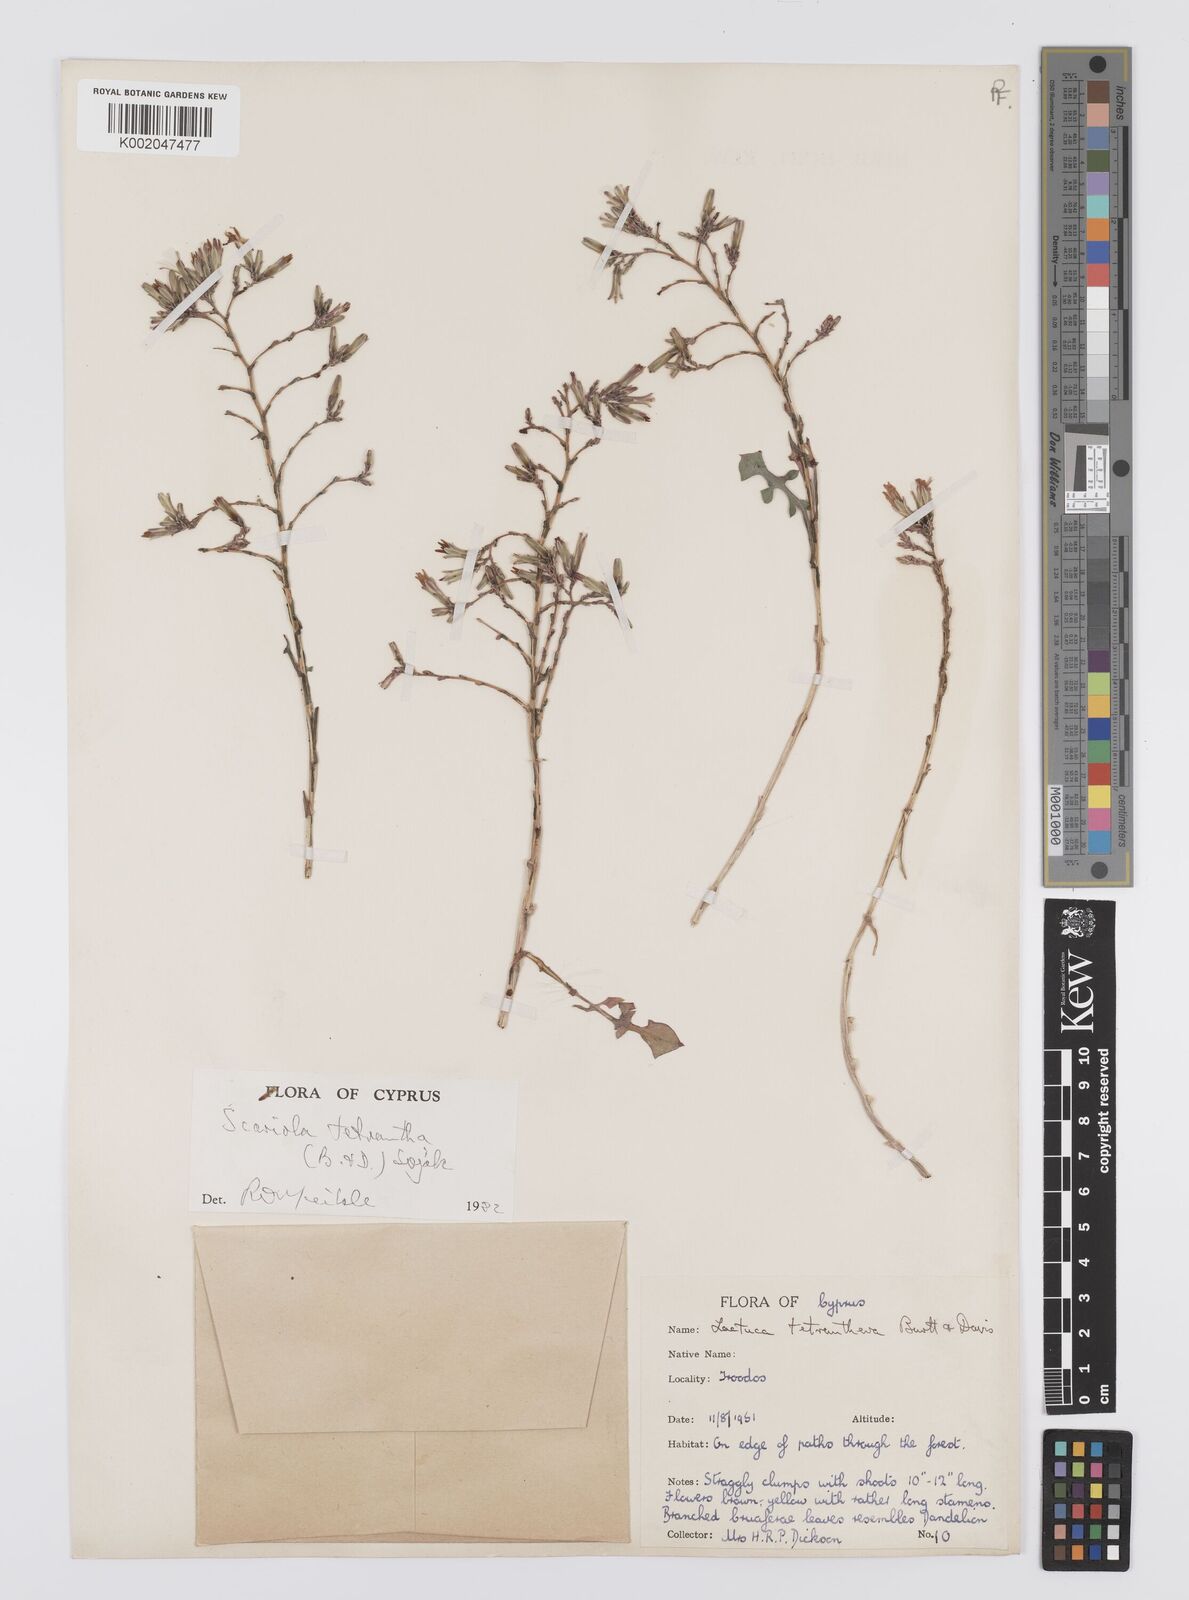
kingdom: Plantae
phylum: Tracheophyta
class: Magnoliopsida
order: Asterales
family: Asteraceae
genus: Lactuca
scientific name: Lactuca tetrantha
